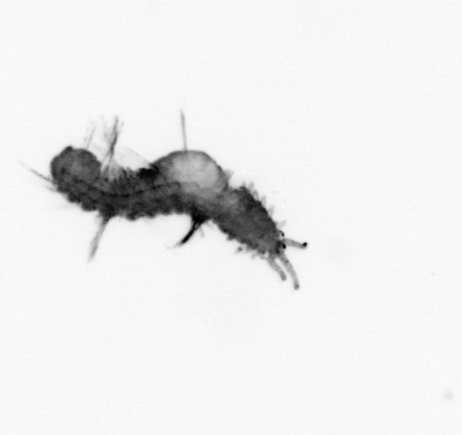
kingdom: Animalia
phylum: Annelida
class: Polychaeta
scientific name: Polychaeta
